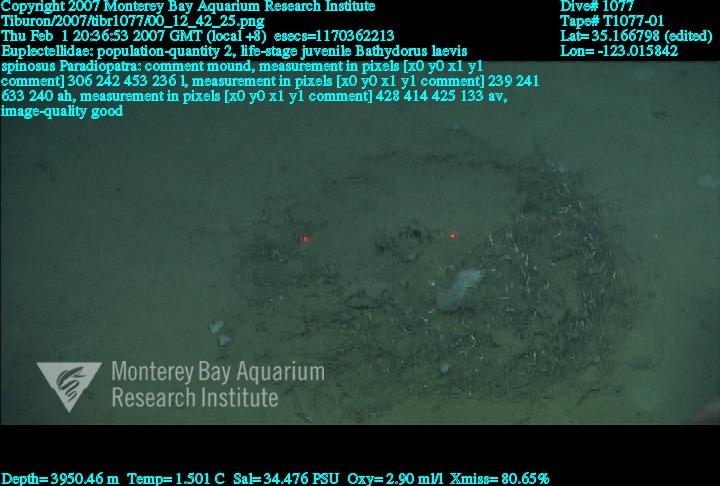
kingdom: Animalia
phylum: Porifera
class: Hexactinellida
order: Lyssacinosida
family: Euplectellidae
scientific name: Euplectellidae
